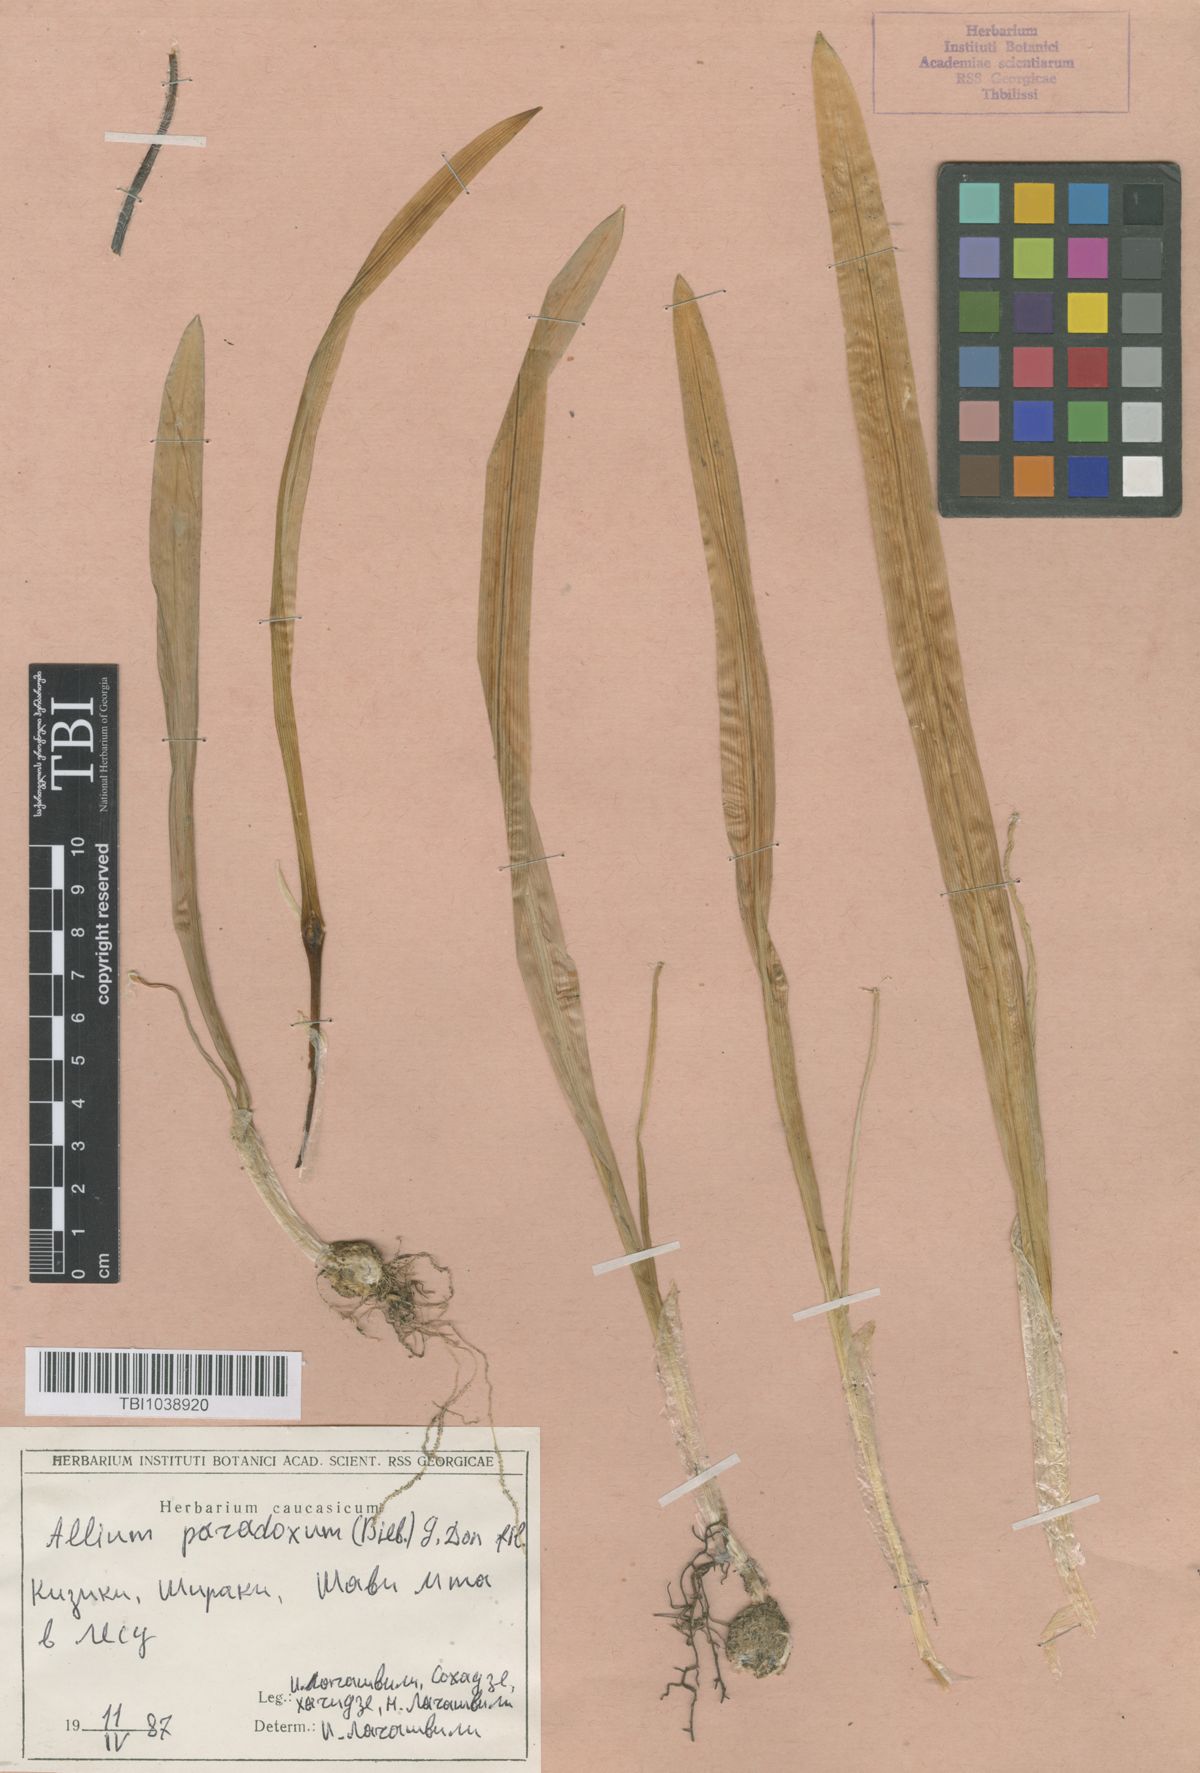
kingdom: Plantae
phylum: Tracheophyta
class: Liliopsida
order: Asparagales
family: Amaryllidaceae
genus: Allium
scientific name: Allium paradoxum
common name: Few-flowered garlic
